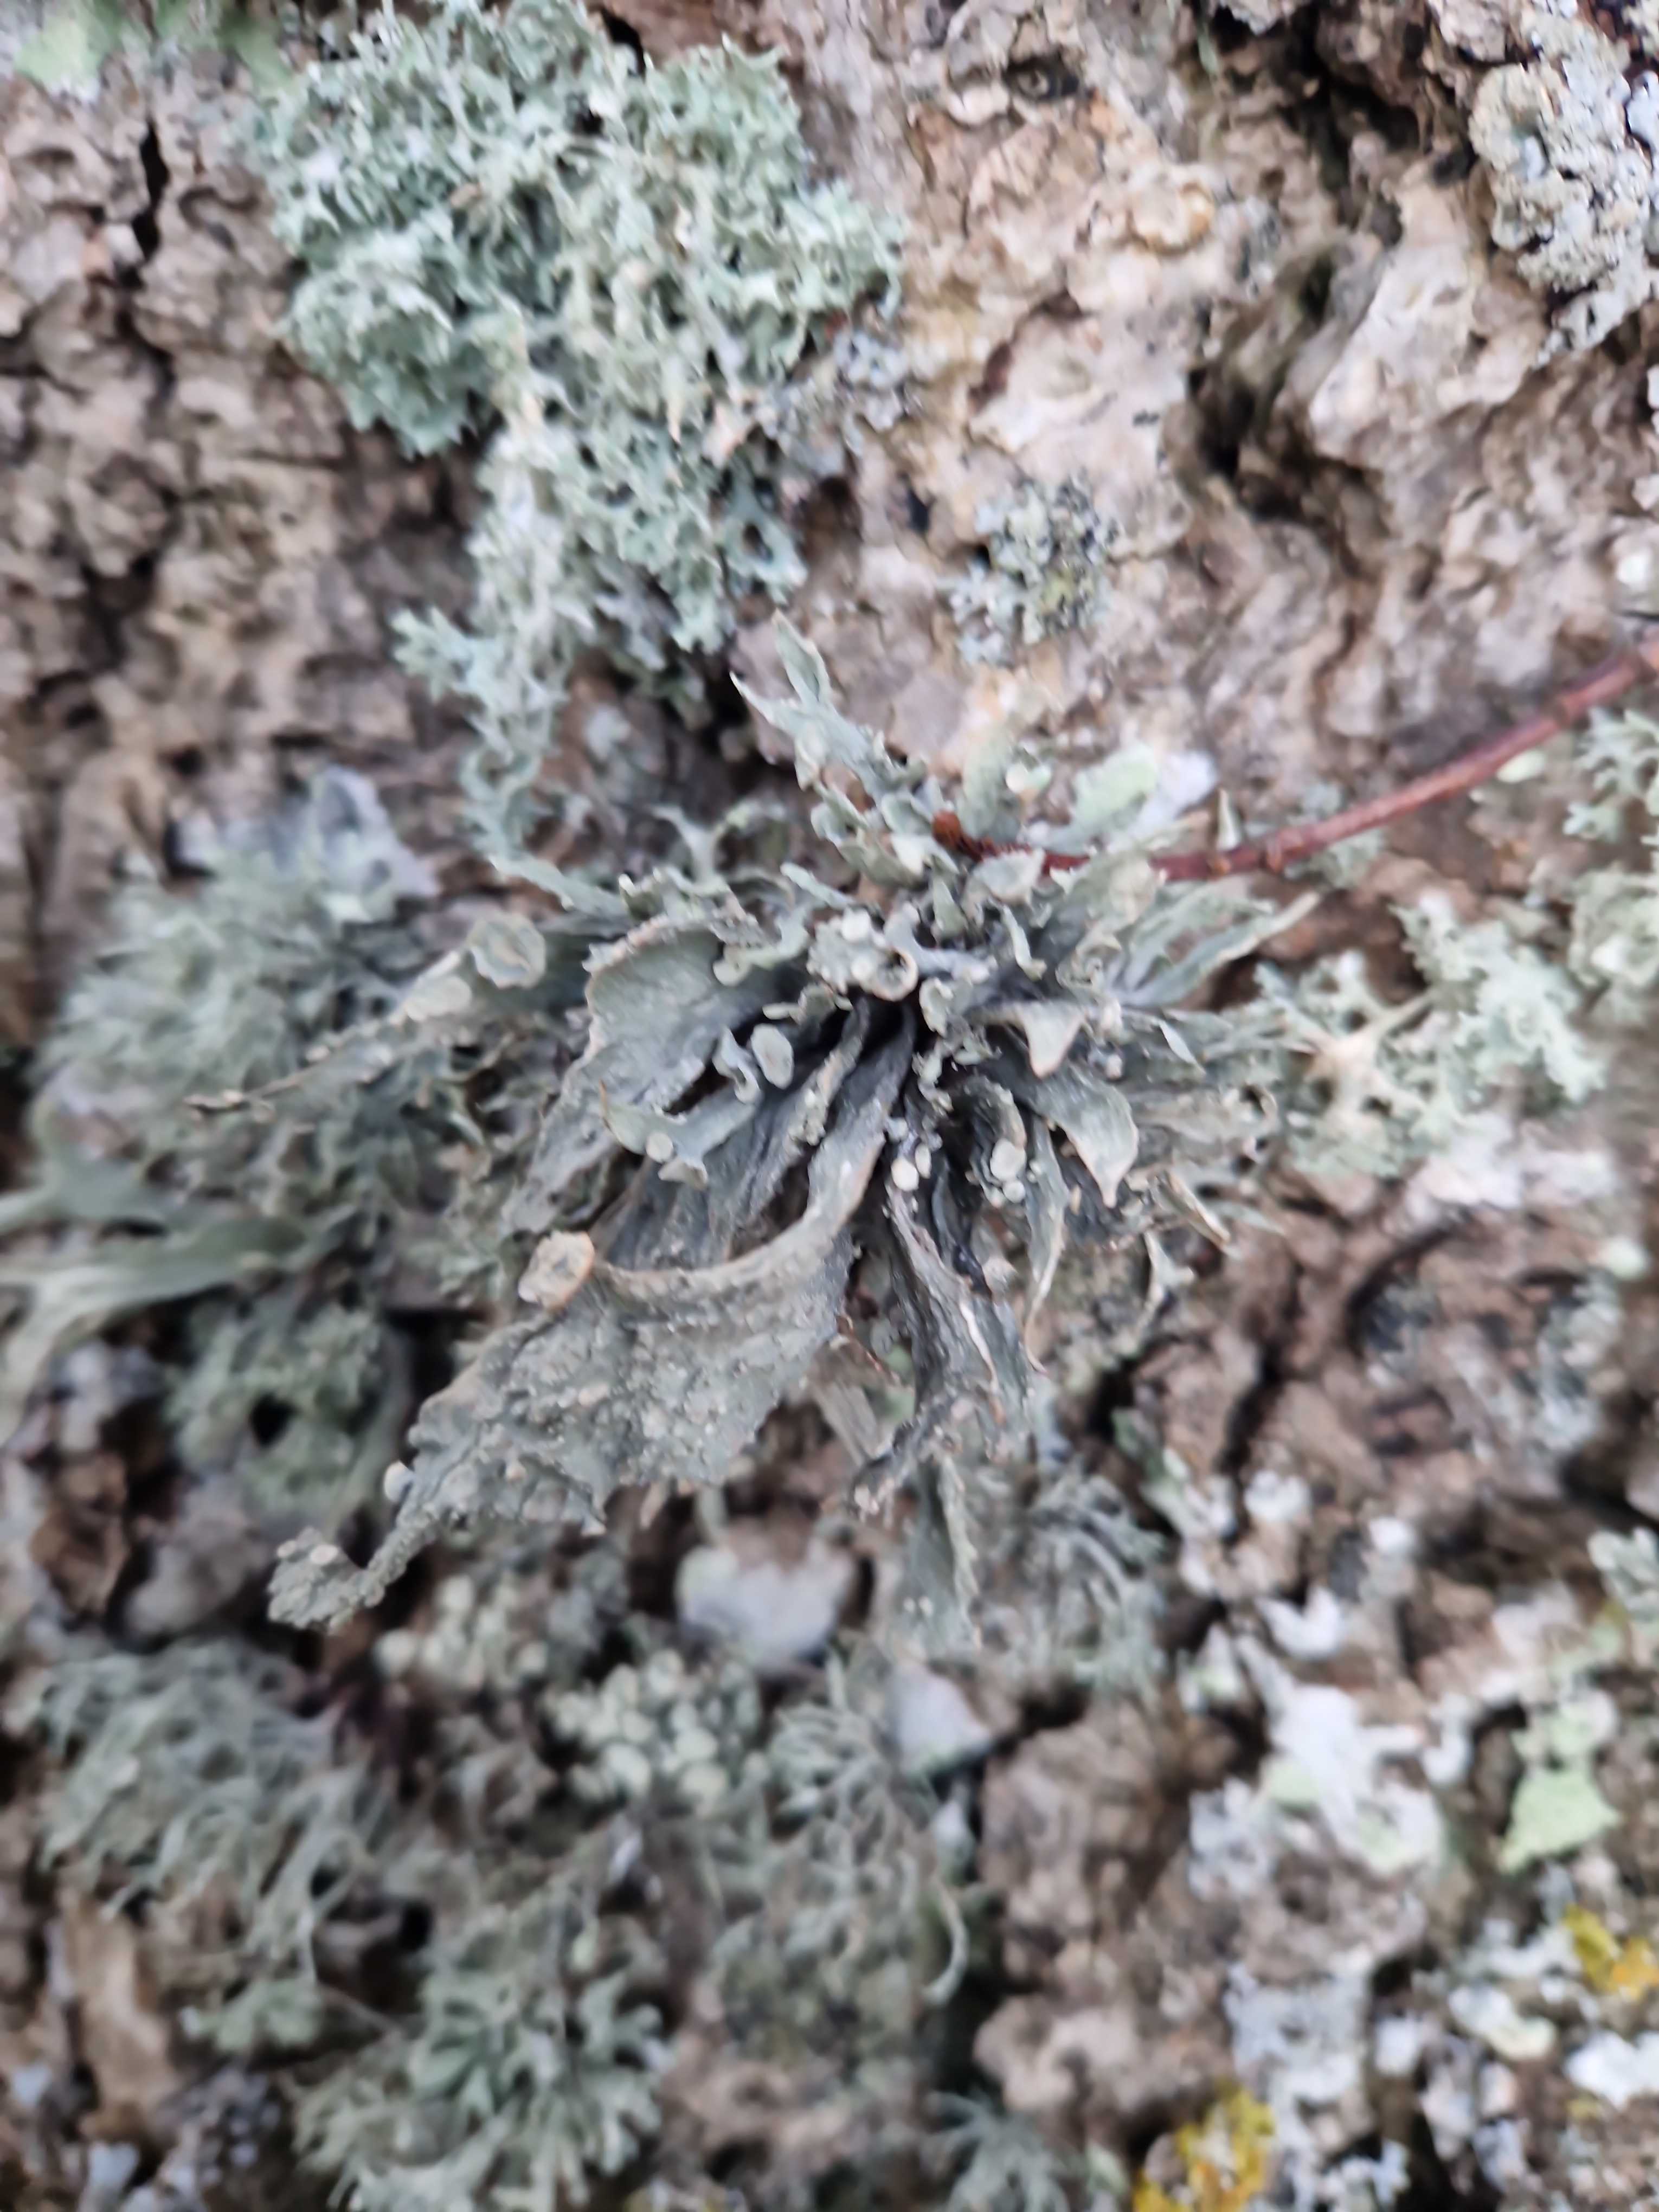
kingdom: Fungi
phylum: Ascomycota
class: Lecanoromycetes
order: Lecanorales
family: Ramalinaceae
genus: Ramalina
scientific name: Ramalina fraxinea
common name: stor grenlav
